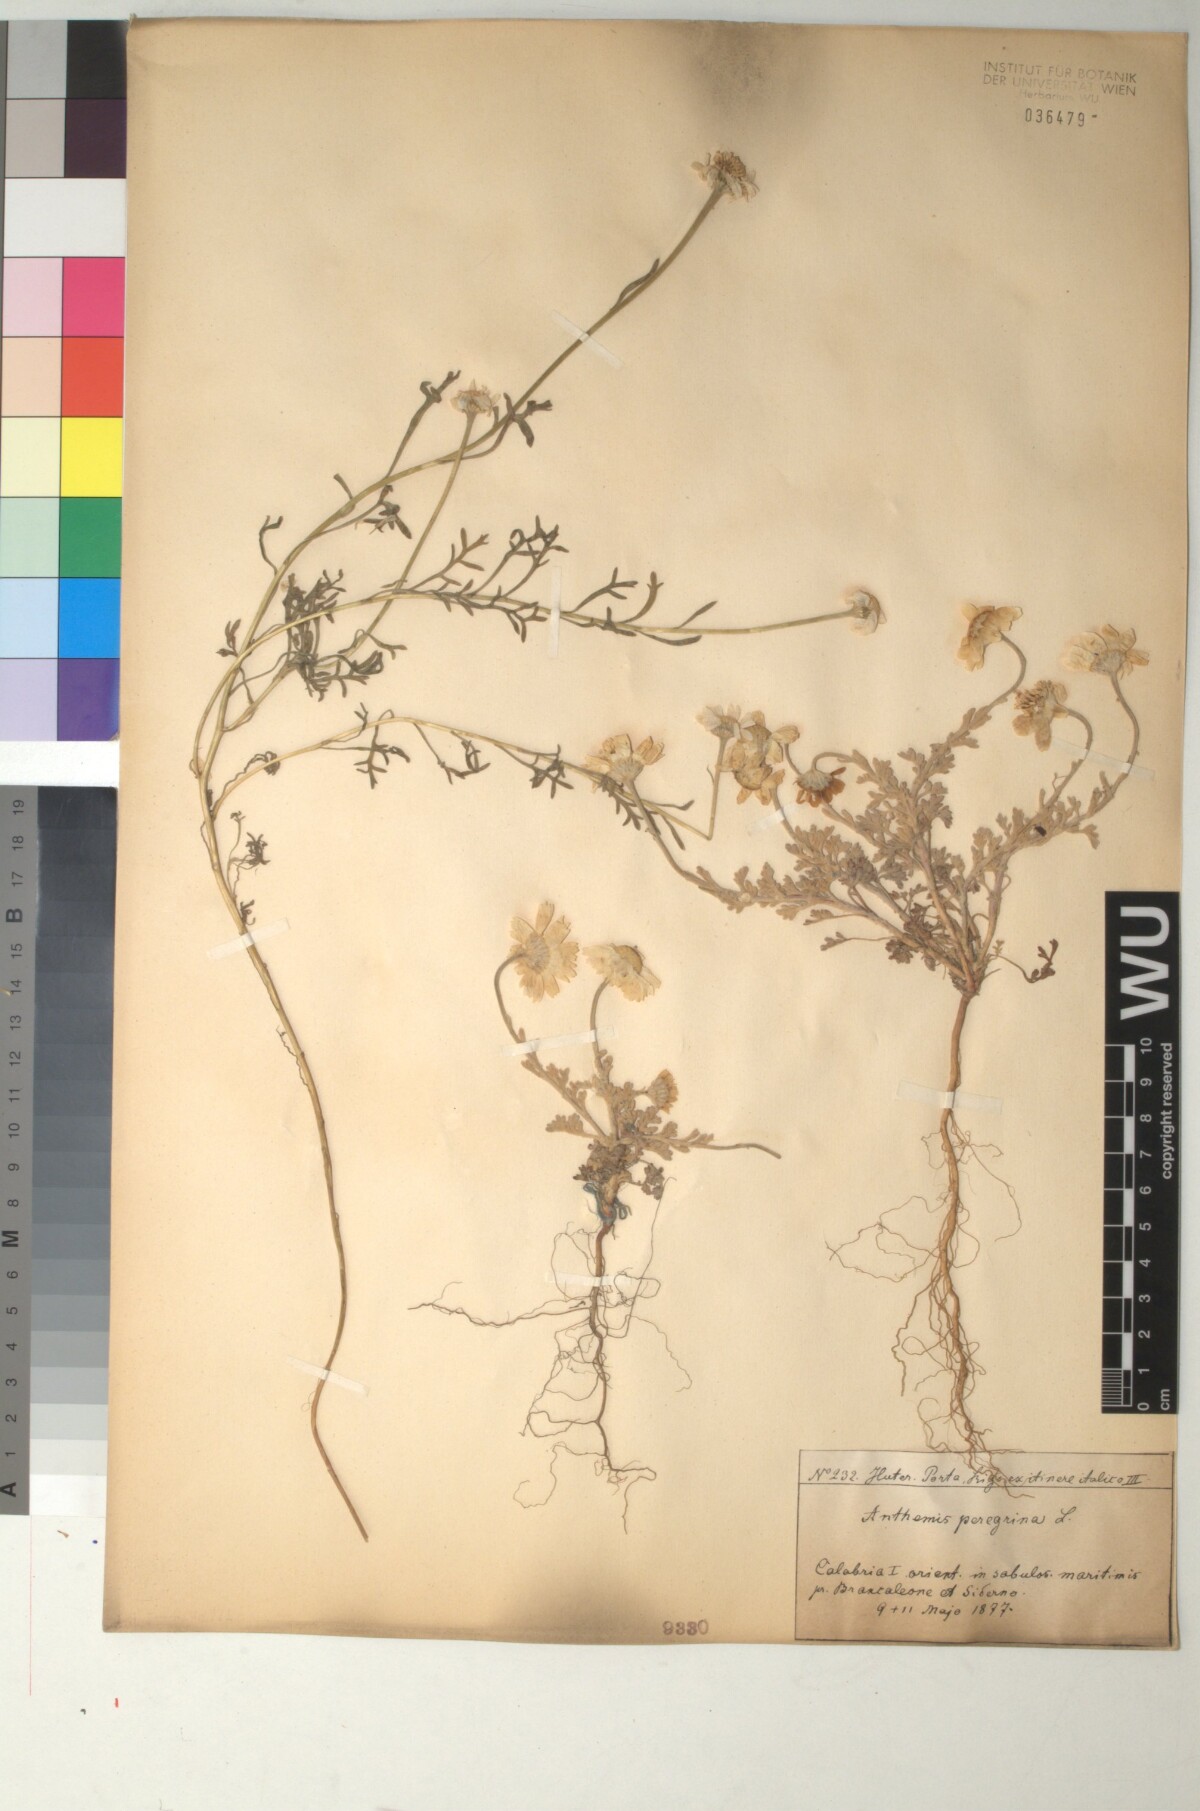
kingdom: Plantae
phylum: Tracheophyta
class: Magnoliopsida
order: Asterales
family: Asteraceae
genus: Anthemis
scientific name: Anthemis tomentosa
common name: Woolly chamomile
